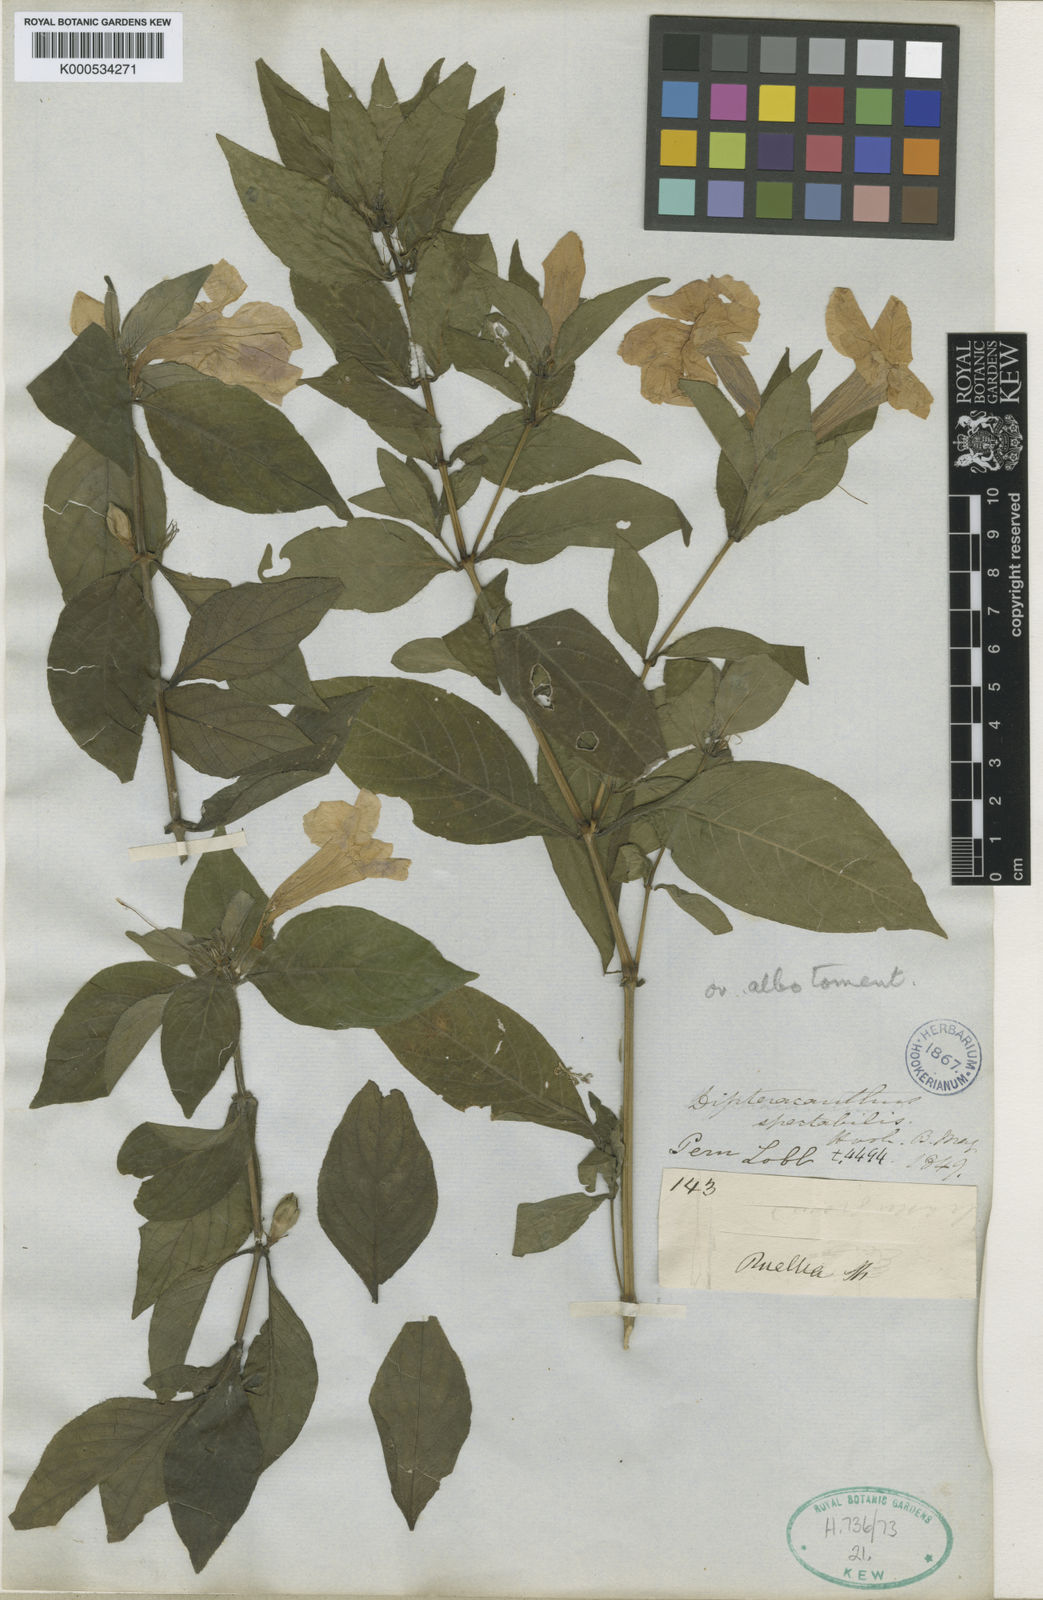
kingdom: Plantae
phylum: Tracheophyta
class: Magnoliopsida
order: Lamiales
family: Acanthaceae
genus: Ruellia
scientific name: Ruellia spectabilis
